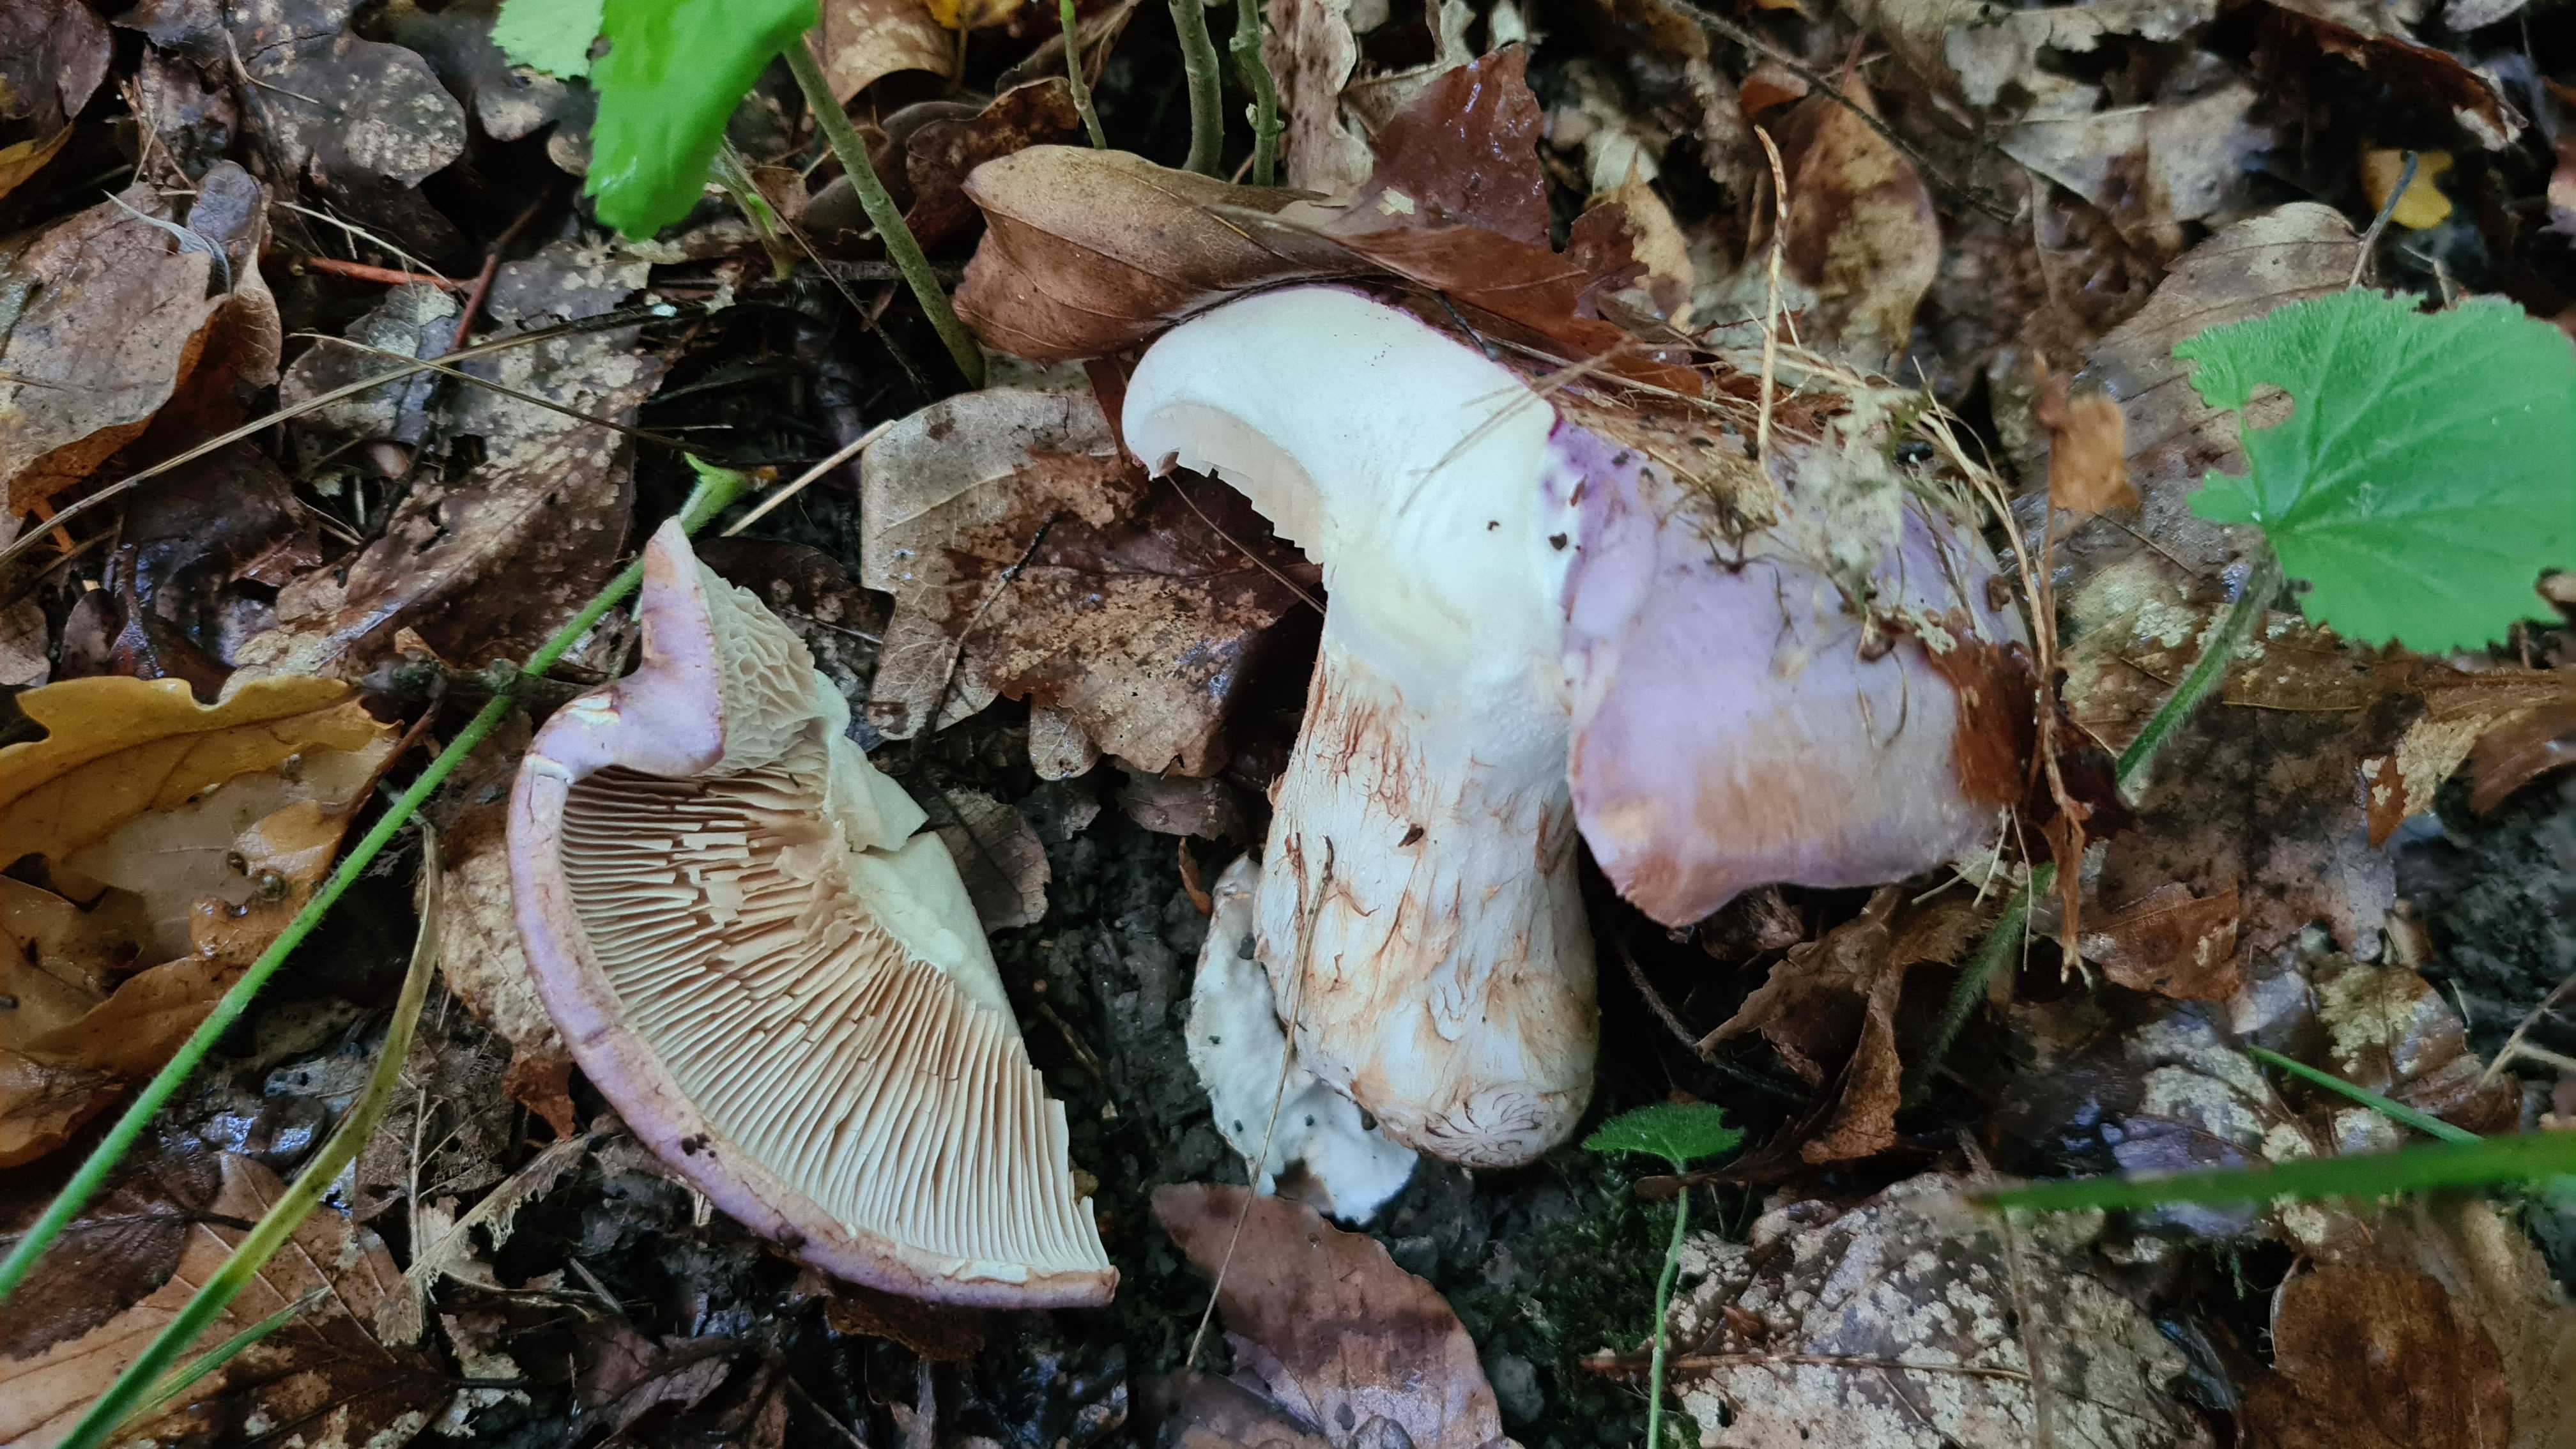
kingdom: Fungi
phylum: Basidiomycota
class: Agaricomycetes
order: Agaricales
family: Cortinariaceae
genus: Phlegmacium
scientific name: Phlegmacium balteatocumatile
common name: violettrådet slørhat
